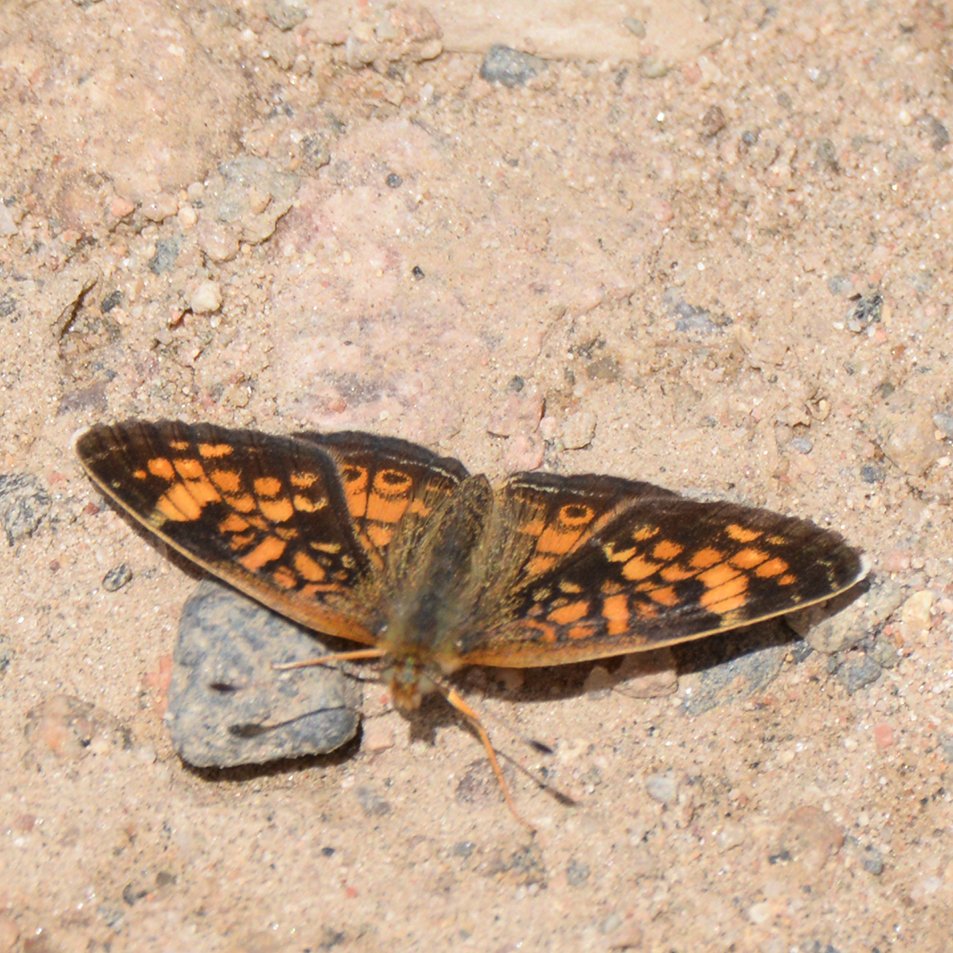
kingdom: Animalia
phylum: Arthropoda
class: Insecta
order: Lepidoptera
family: Nymphalidae
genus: Phyciodes
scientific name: Phyciodes
